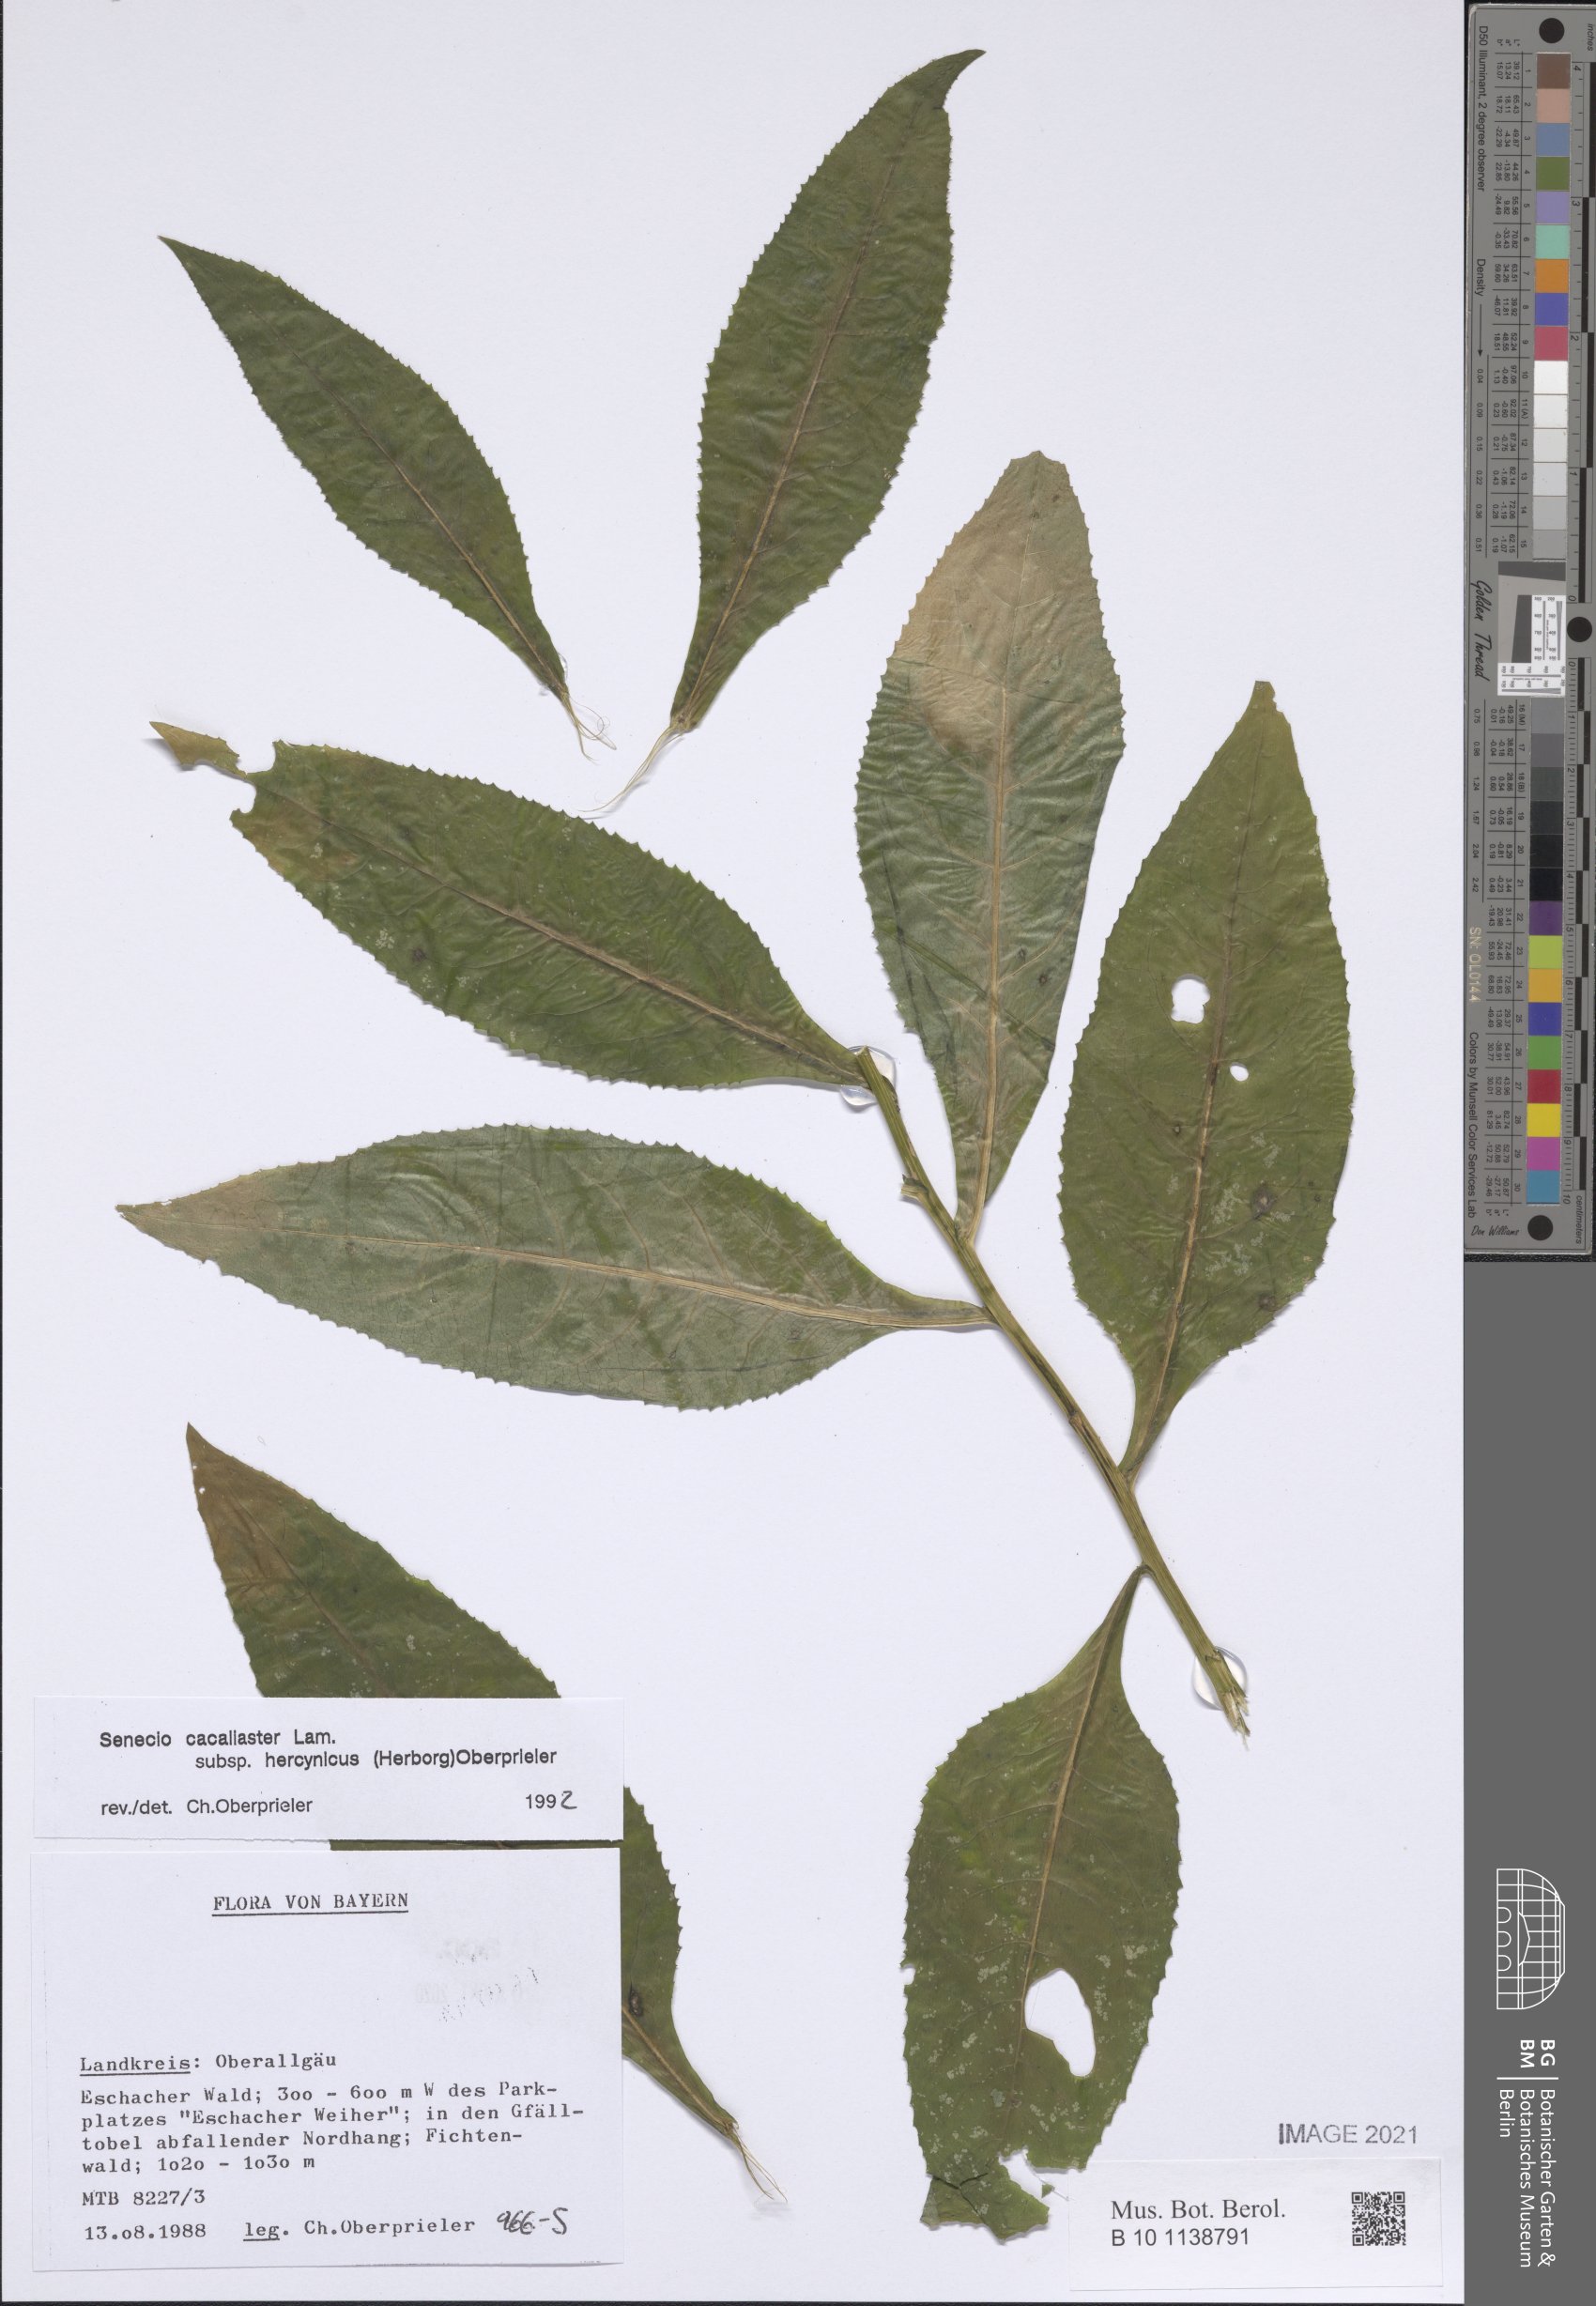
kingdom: Plantae
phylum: Tracheophyta
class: Magnoliopsida
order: Asterales
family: Asteraceae
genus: Senecio
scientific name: Senecio hercynicus
